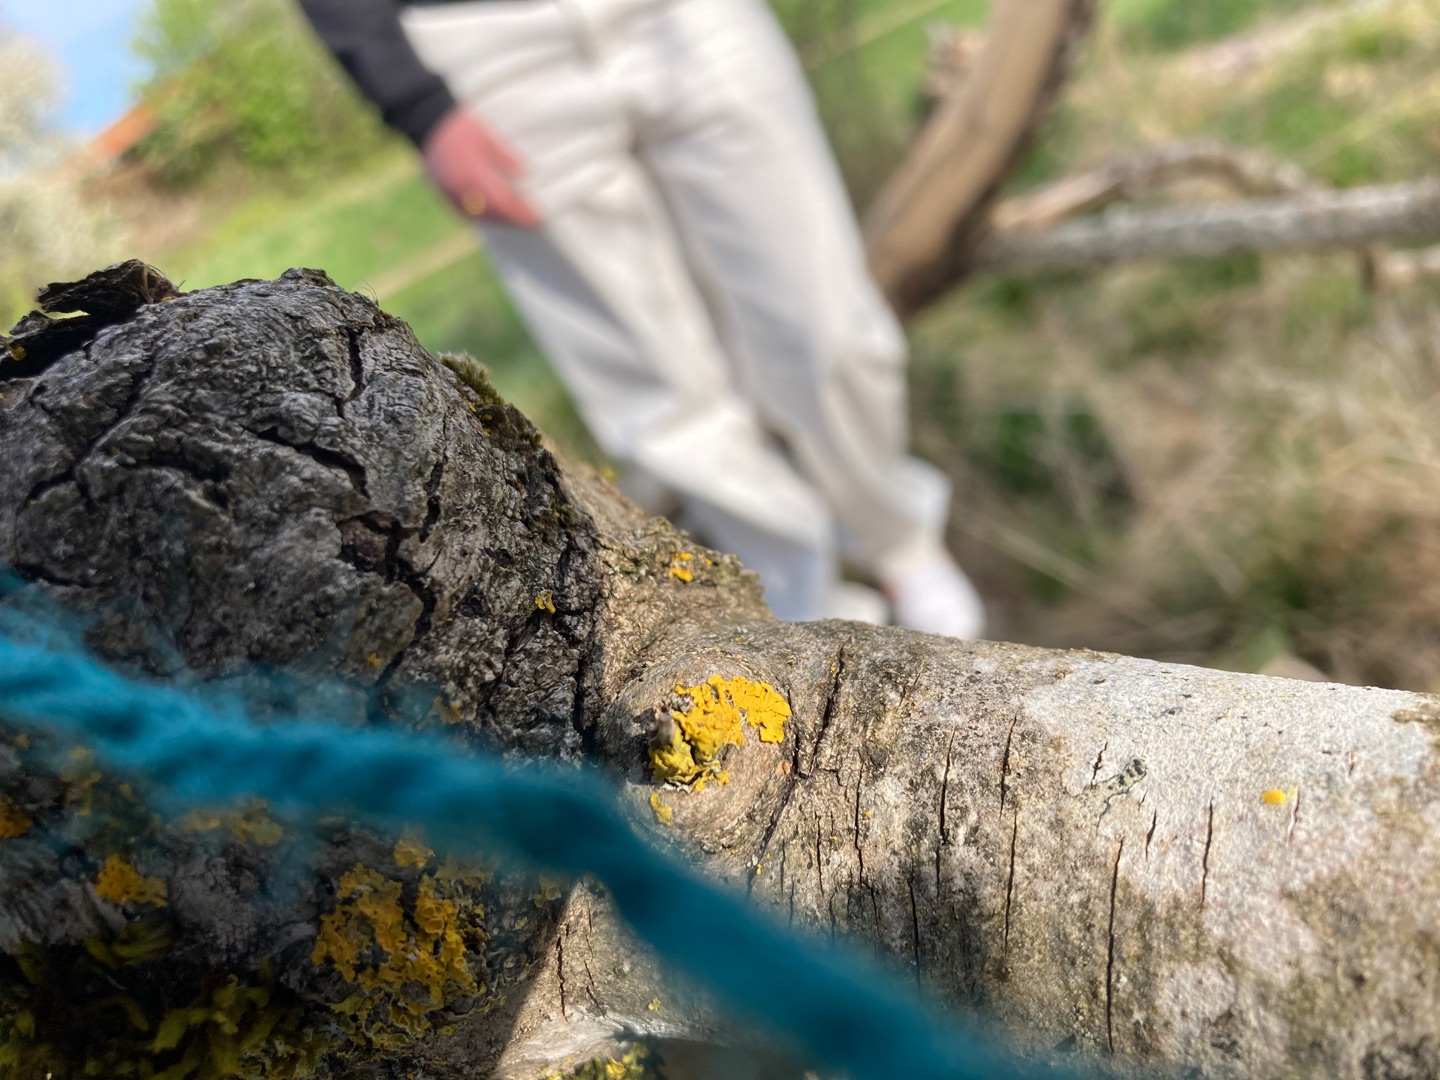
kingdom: Fungi
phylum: Ascomycota
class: Lecanoromycetes
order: Teloschistales
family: Teloschistaceae
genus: Xanthoria
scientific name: Xanthoria parietina
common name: Almindelig væggelav
